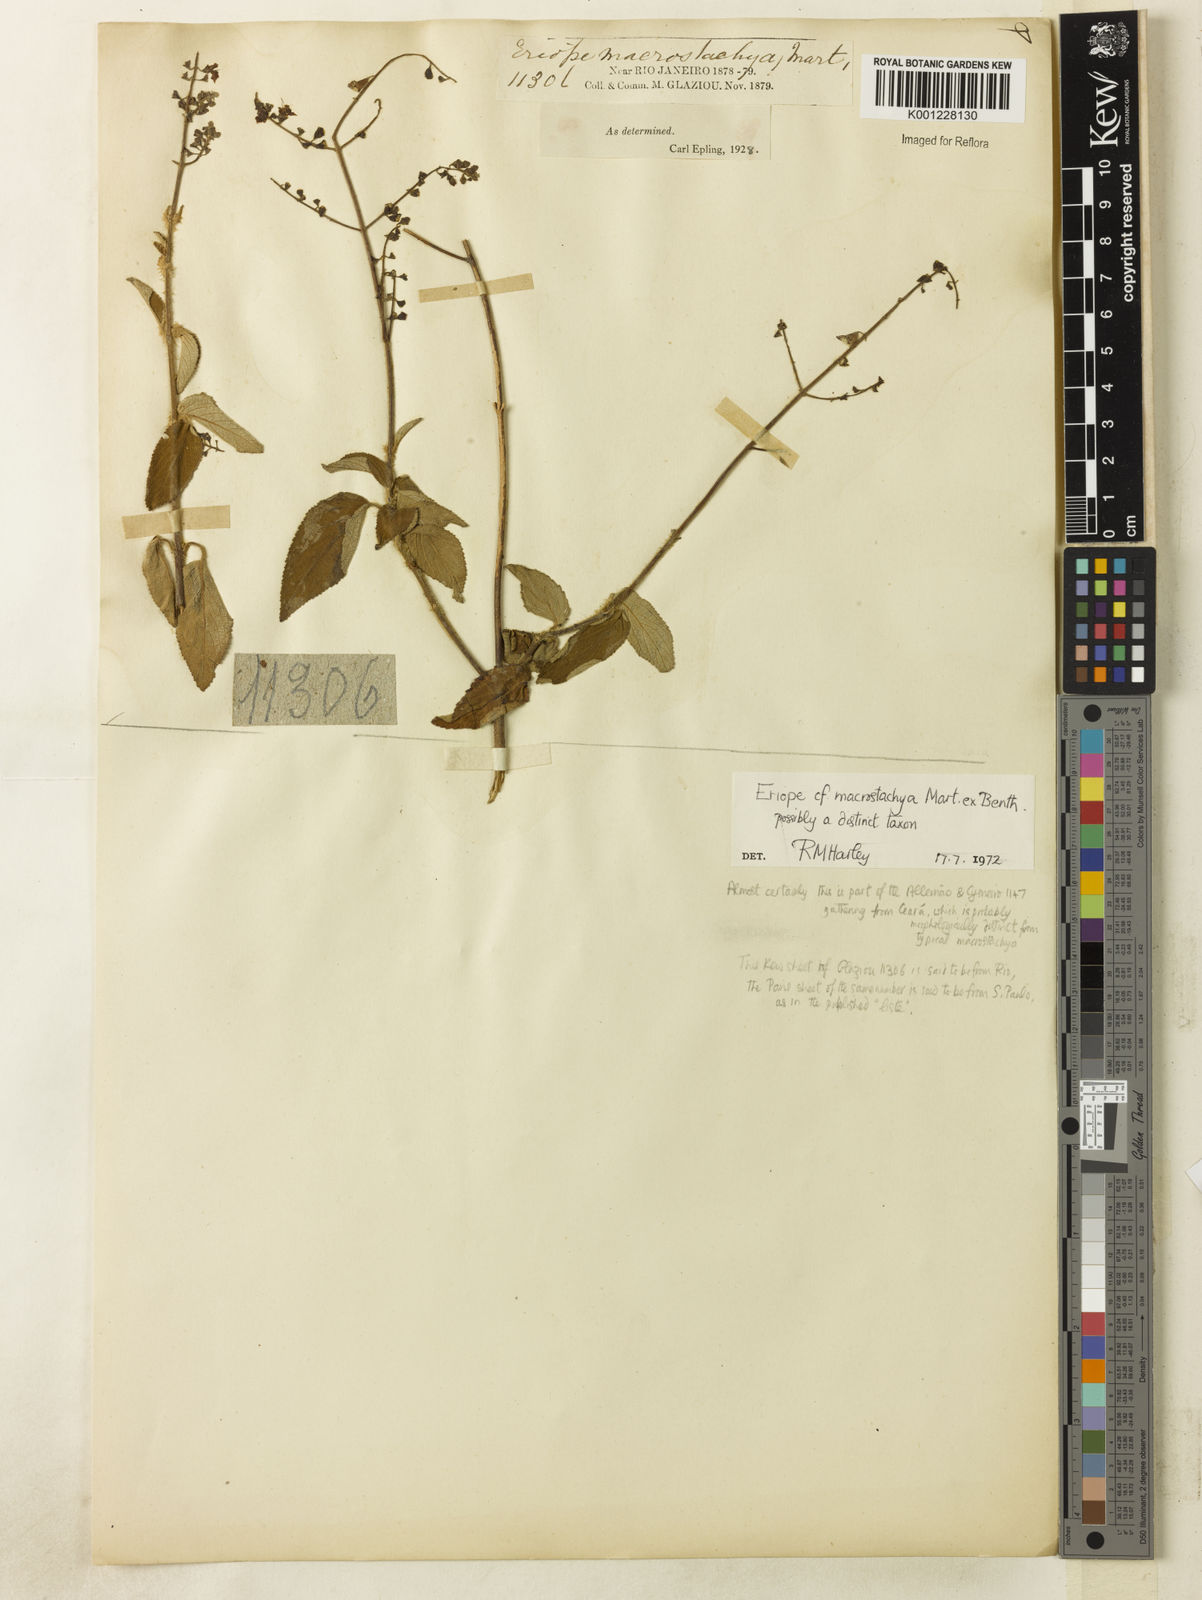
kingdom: Plantae
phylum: Tracheophyta
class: Magnoliopsida
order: Lamiales
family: Lamiaceae
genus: Eriope
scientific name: Eriope
